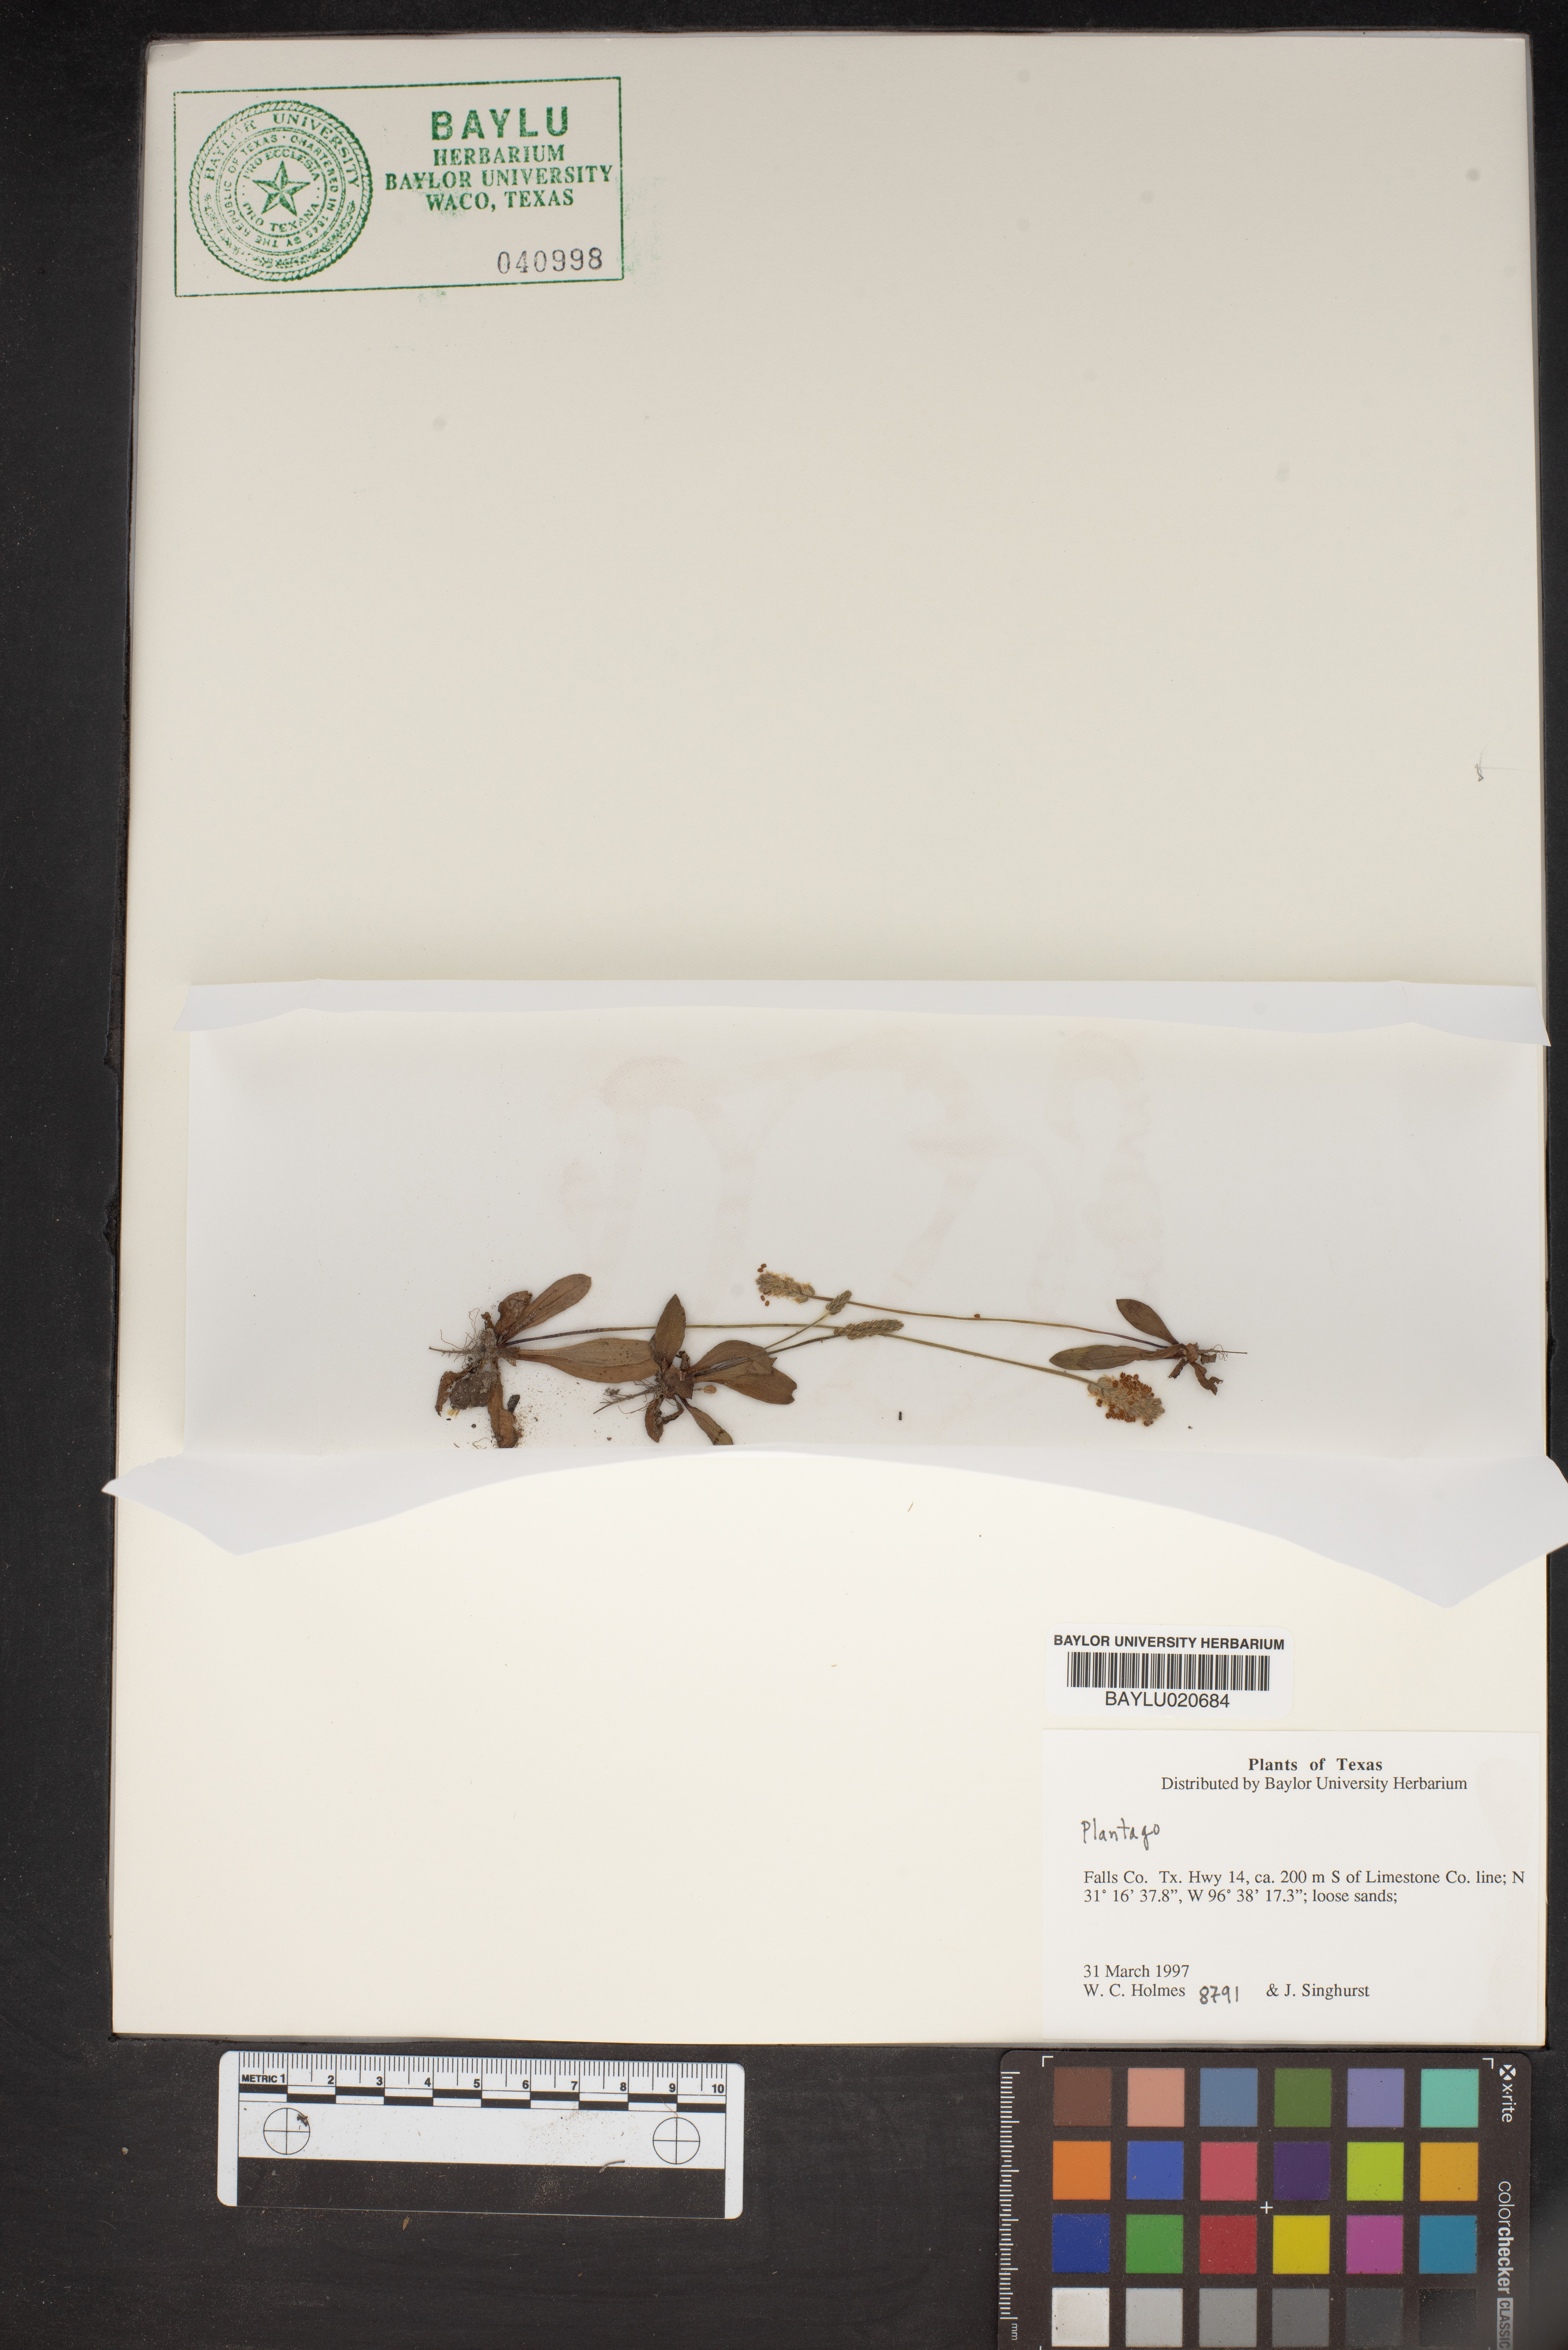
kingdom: Plantae
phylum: Tracheophyta
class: Magnoliopsida
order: Lamiales
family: Plantaginaceae
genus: Plantago
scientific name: Plantago
